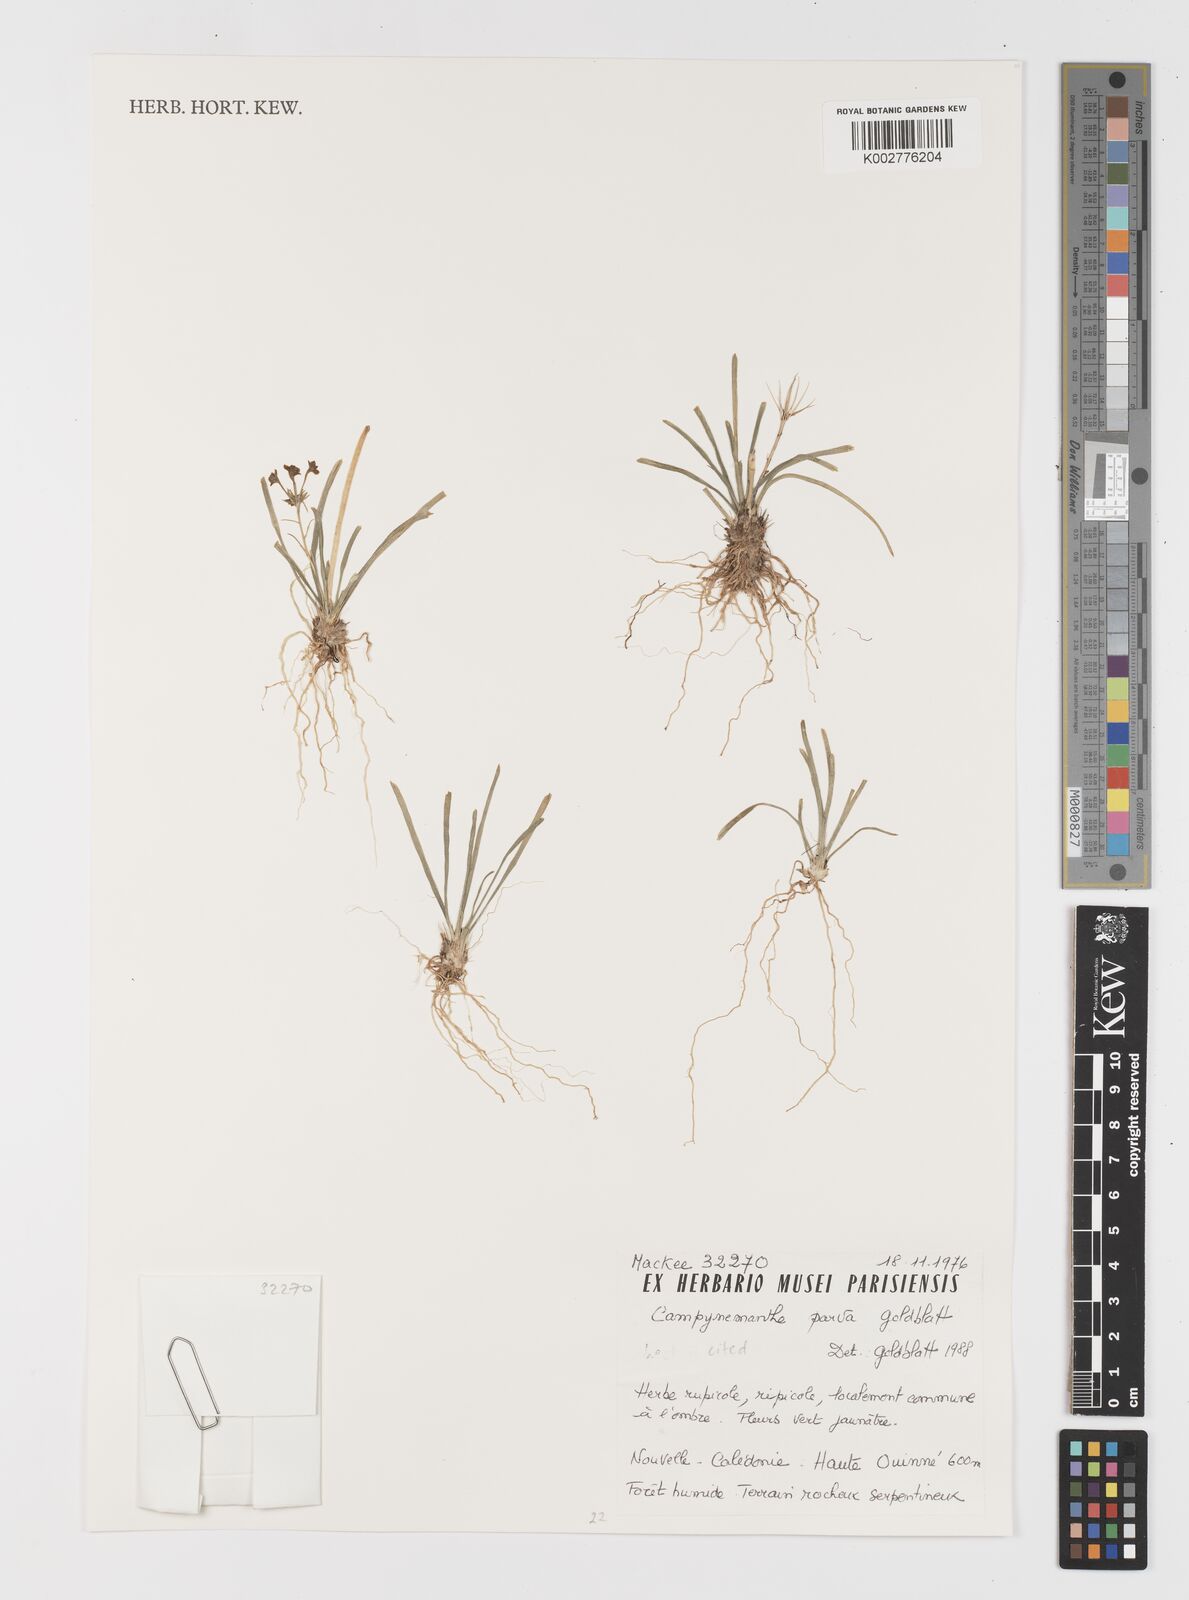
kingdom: Plantae
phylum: Tracheophyta
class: Liliopsida
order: Liliales
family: Campynemataceae
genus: Campynemanthe
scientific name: Campynemanthe parva
